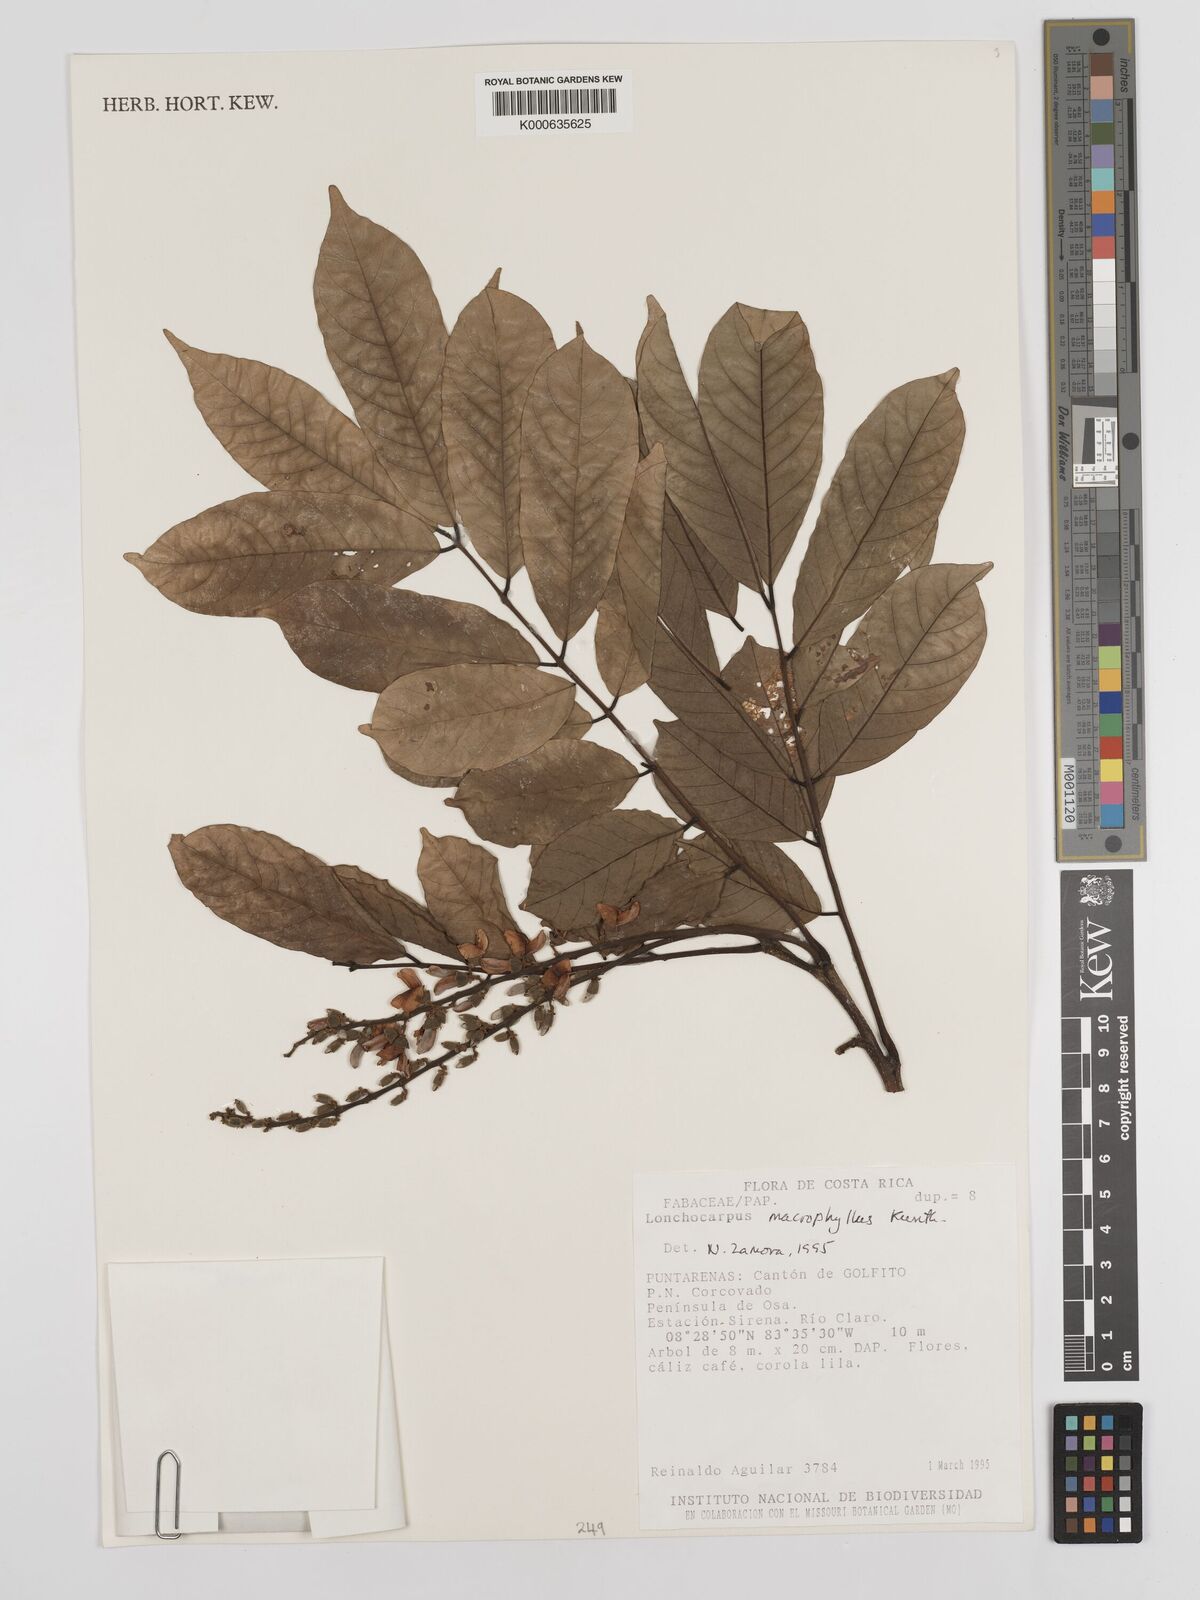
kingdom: Plantae
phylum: Tracheophyta
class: Magnoliopsida
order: Fabales
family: Fabaceae
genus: Lonchocarpus
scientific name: Lonchocarpus macrophyllus
